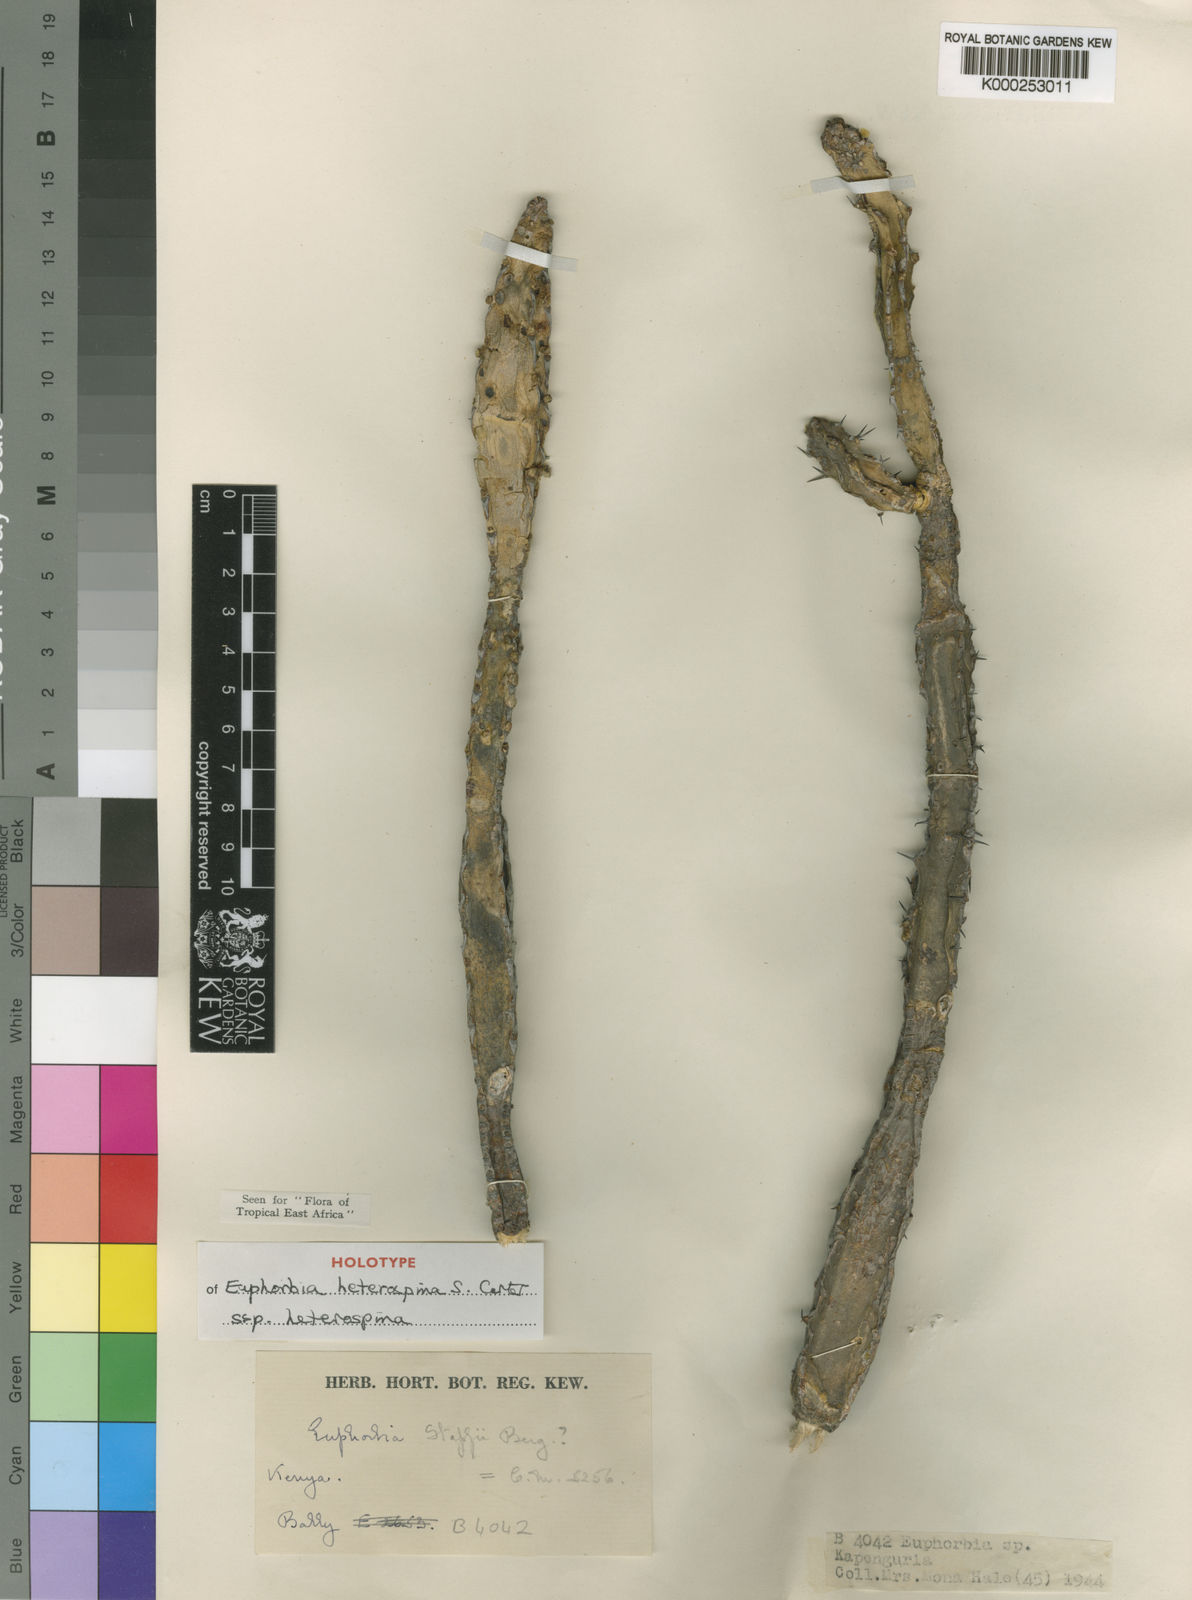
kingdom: Plantae
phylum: Tracheophyta
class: Magnoliopsida
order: Malpighiales
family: Euphorbiaceae
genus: Euphorbia
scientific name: Euphorbia heterospina
